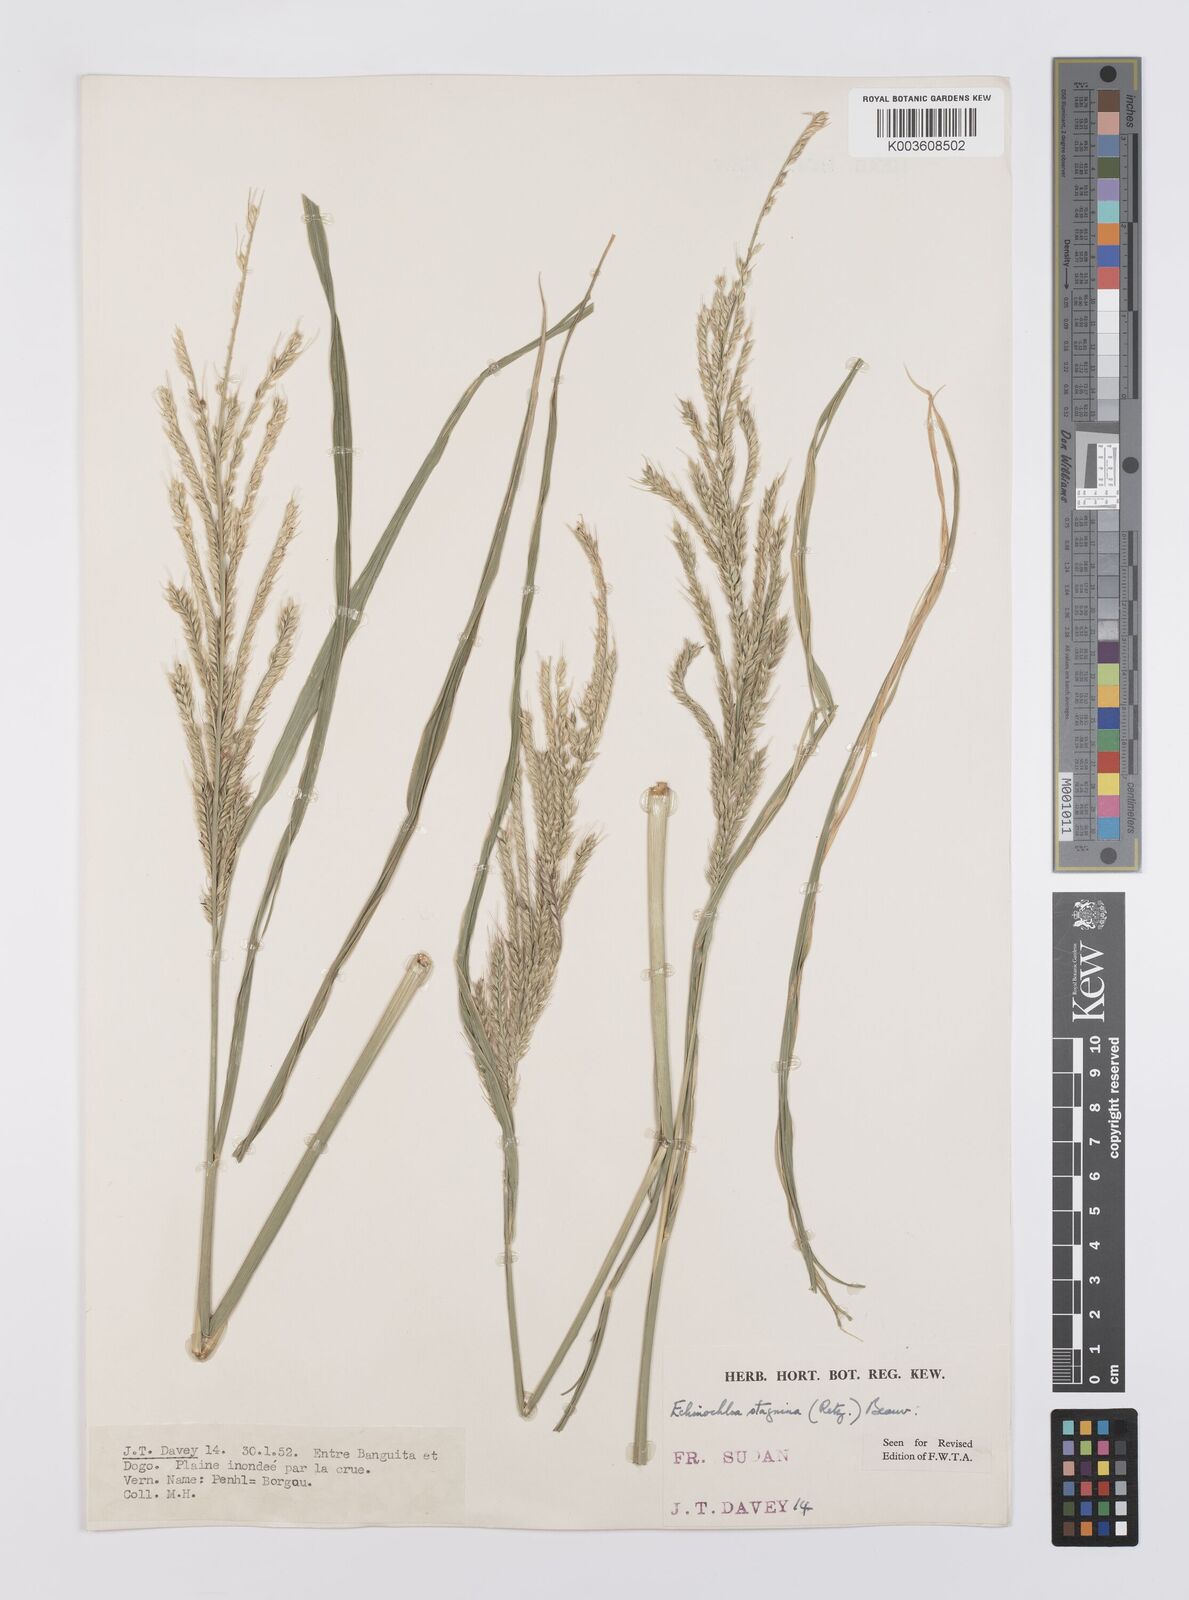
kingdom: Plantae
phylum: Tracheophyta
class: Liliopsida
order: Poales
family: Poaceae
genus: Echinochloa
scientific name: Echinochloa stagnina
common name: Burgu grass
